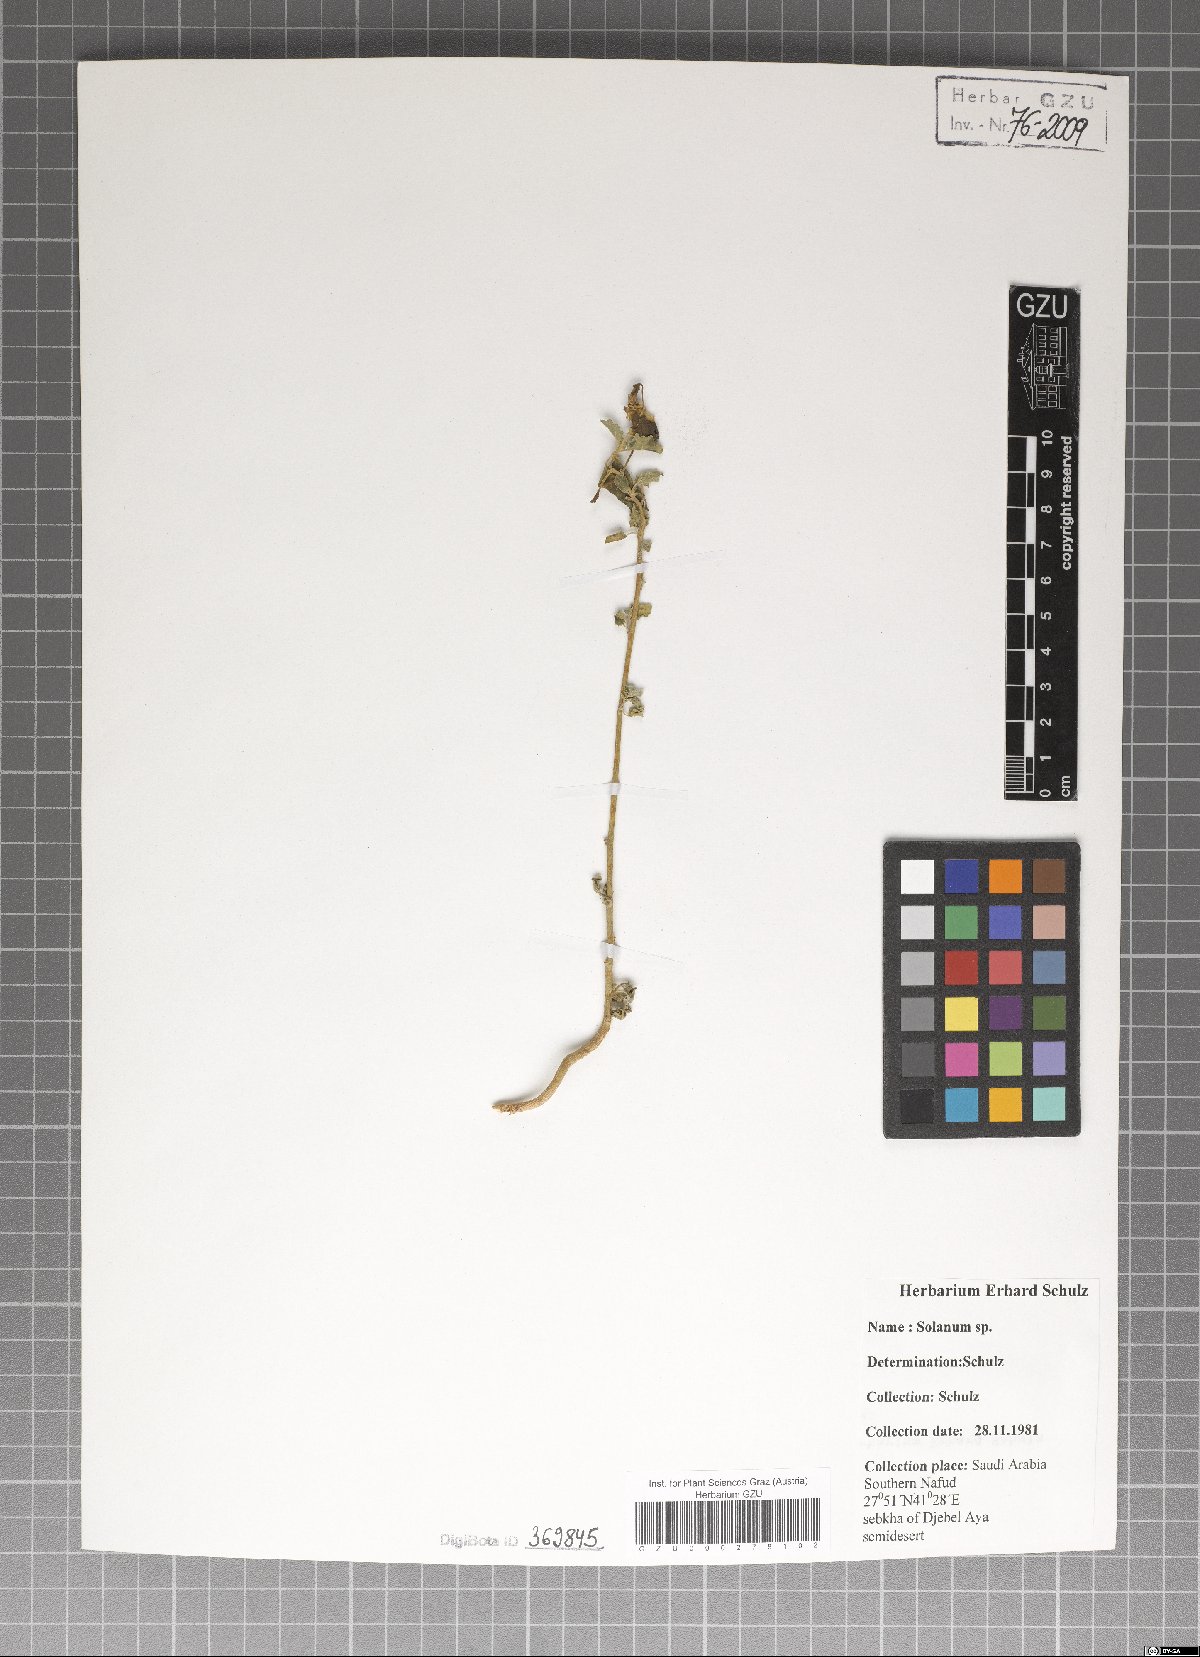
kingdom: Plantae
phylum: Tracheophyta
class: Magnoliopsida
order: Solanales
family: Solanaceae
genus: Solanum
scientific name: Solanum
